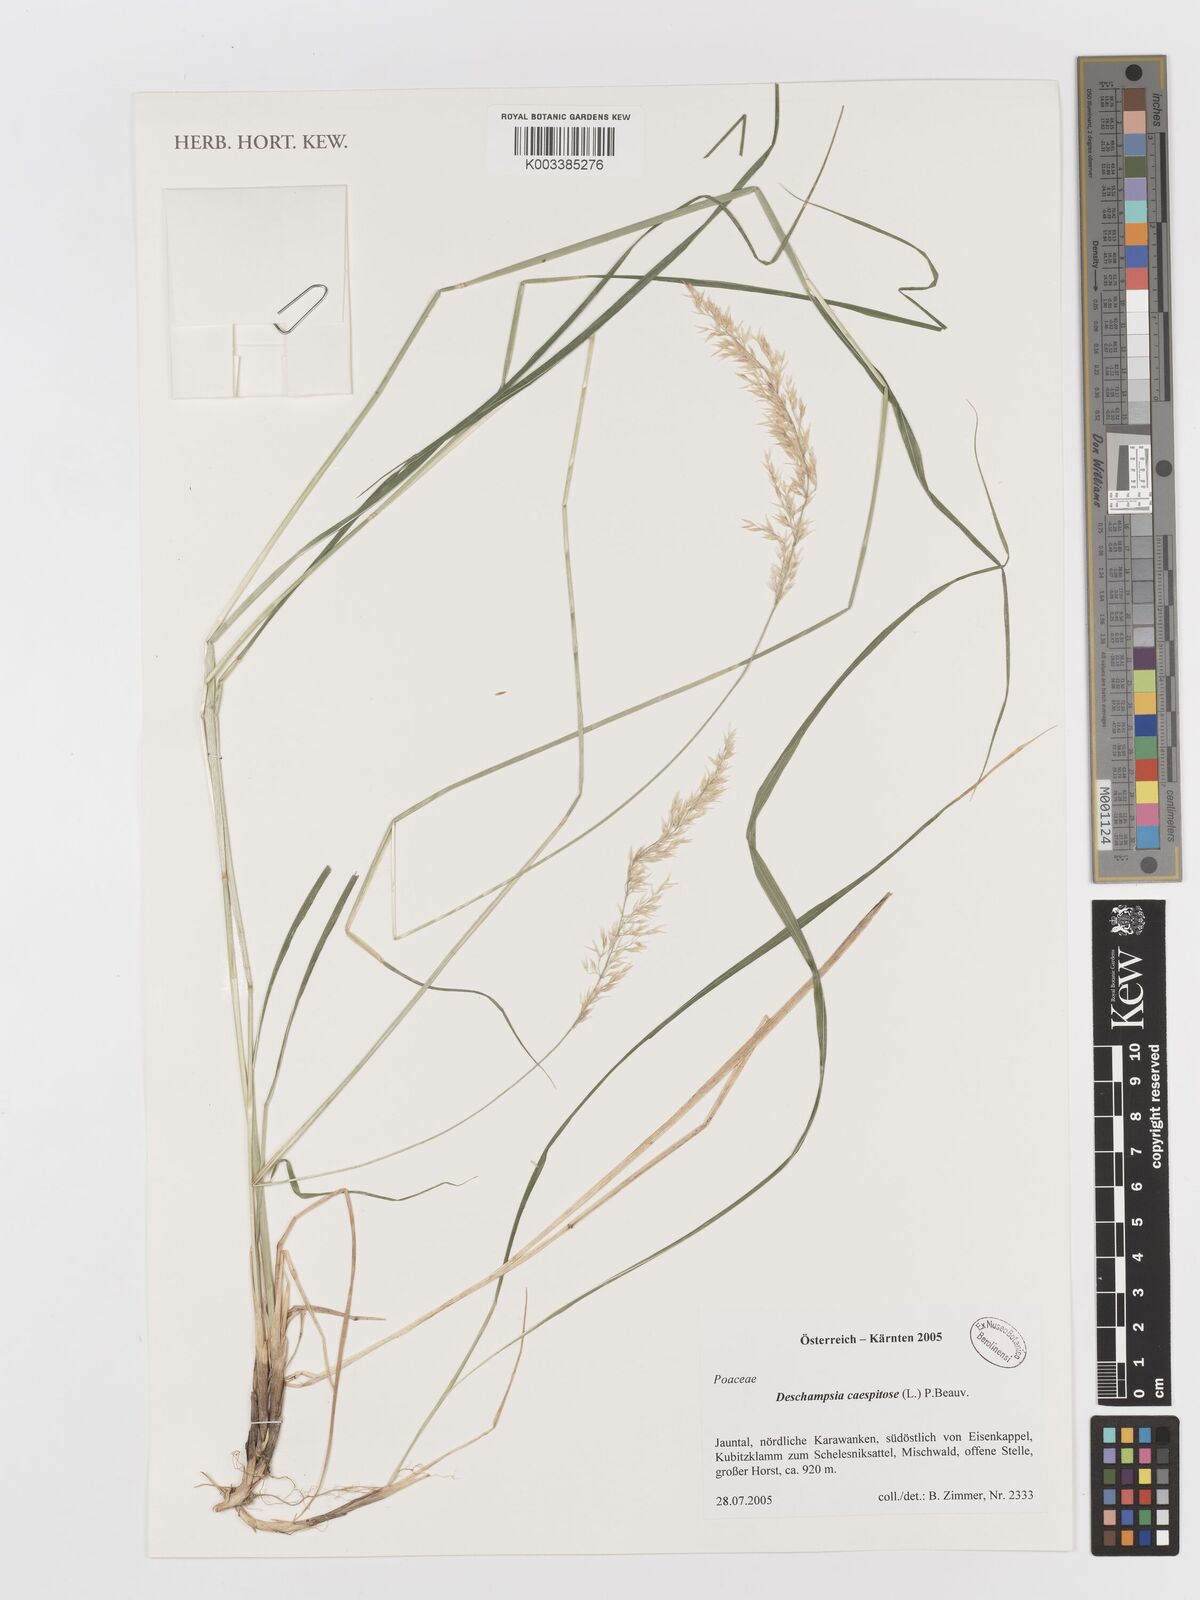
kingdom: Plantae
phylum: Tracheophyta
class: Liliopsida
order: Poales
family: Poaceae
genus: Deschampsia
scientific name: Deschampsia cespitosa
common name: Tufted hair-grass
